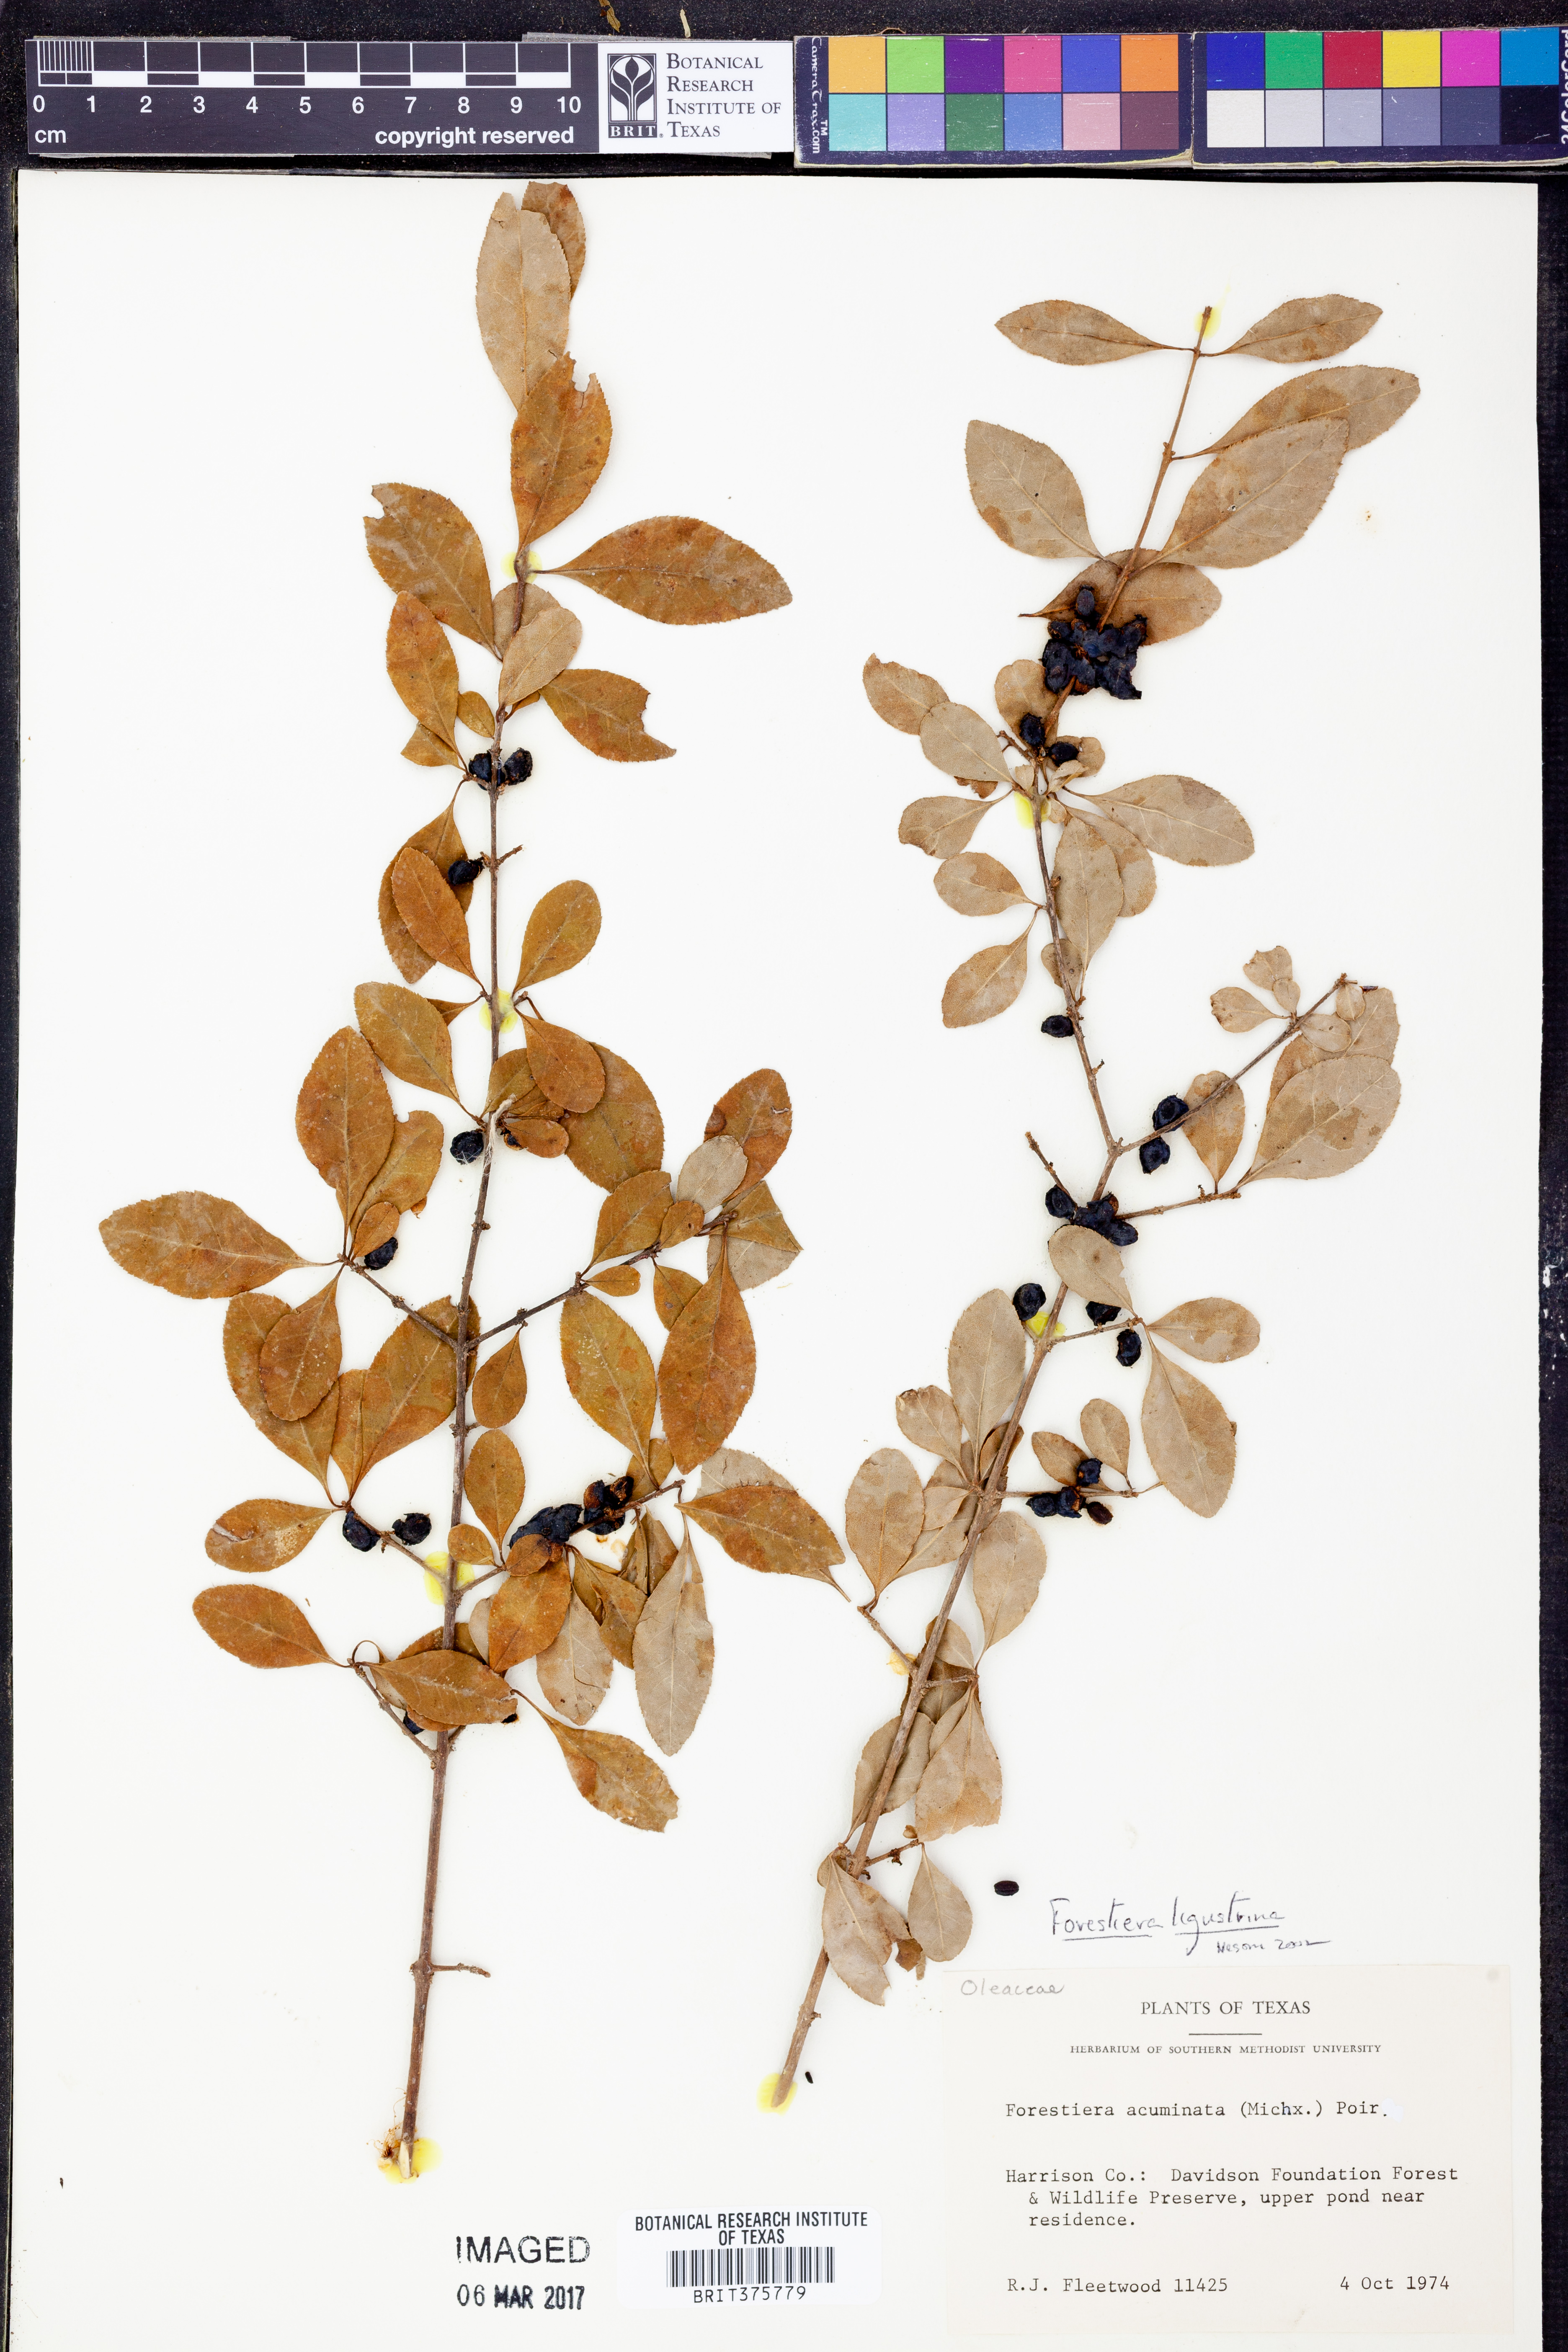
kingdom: Plantae
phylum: Tracheophyta
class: Magnoliopsida
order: Lamiales
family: Oleaceae
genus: Forestiera
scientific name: Forestiera ligustrina
